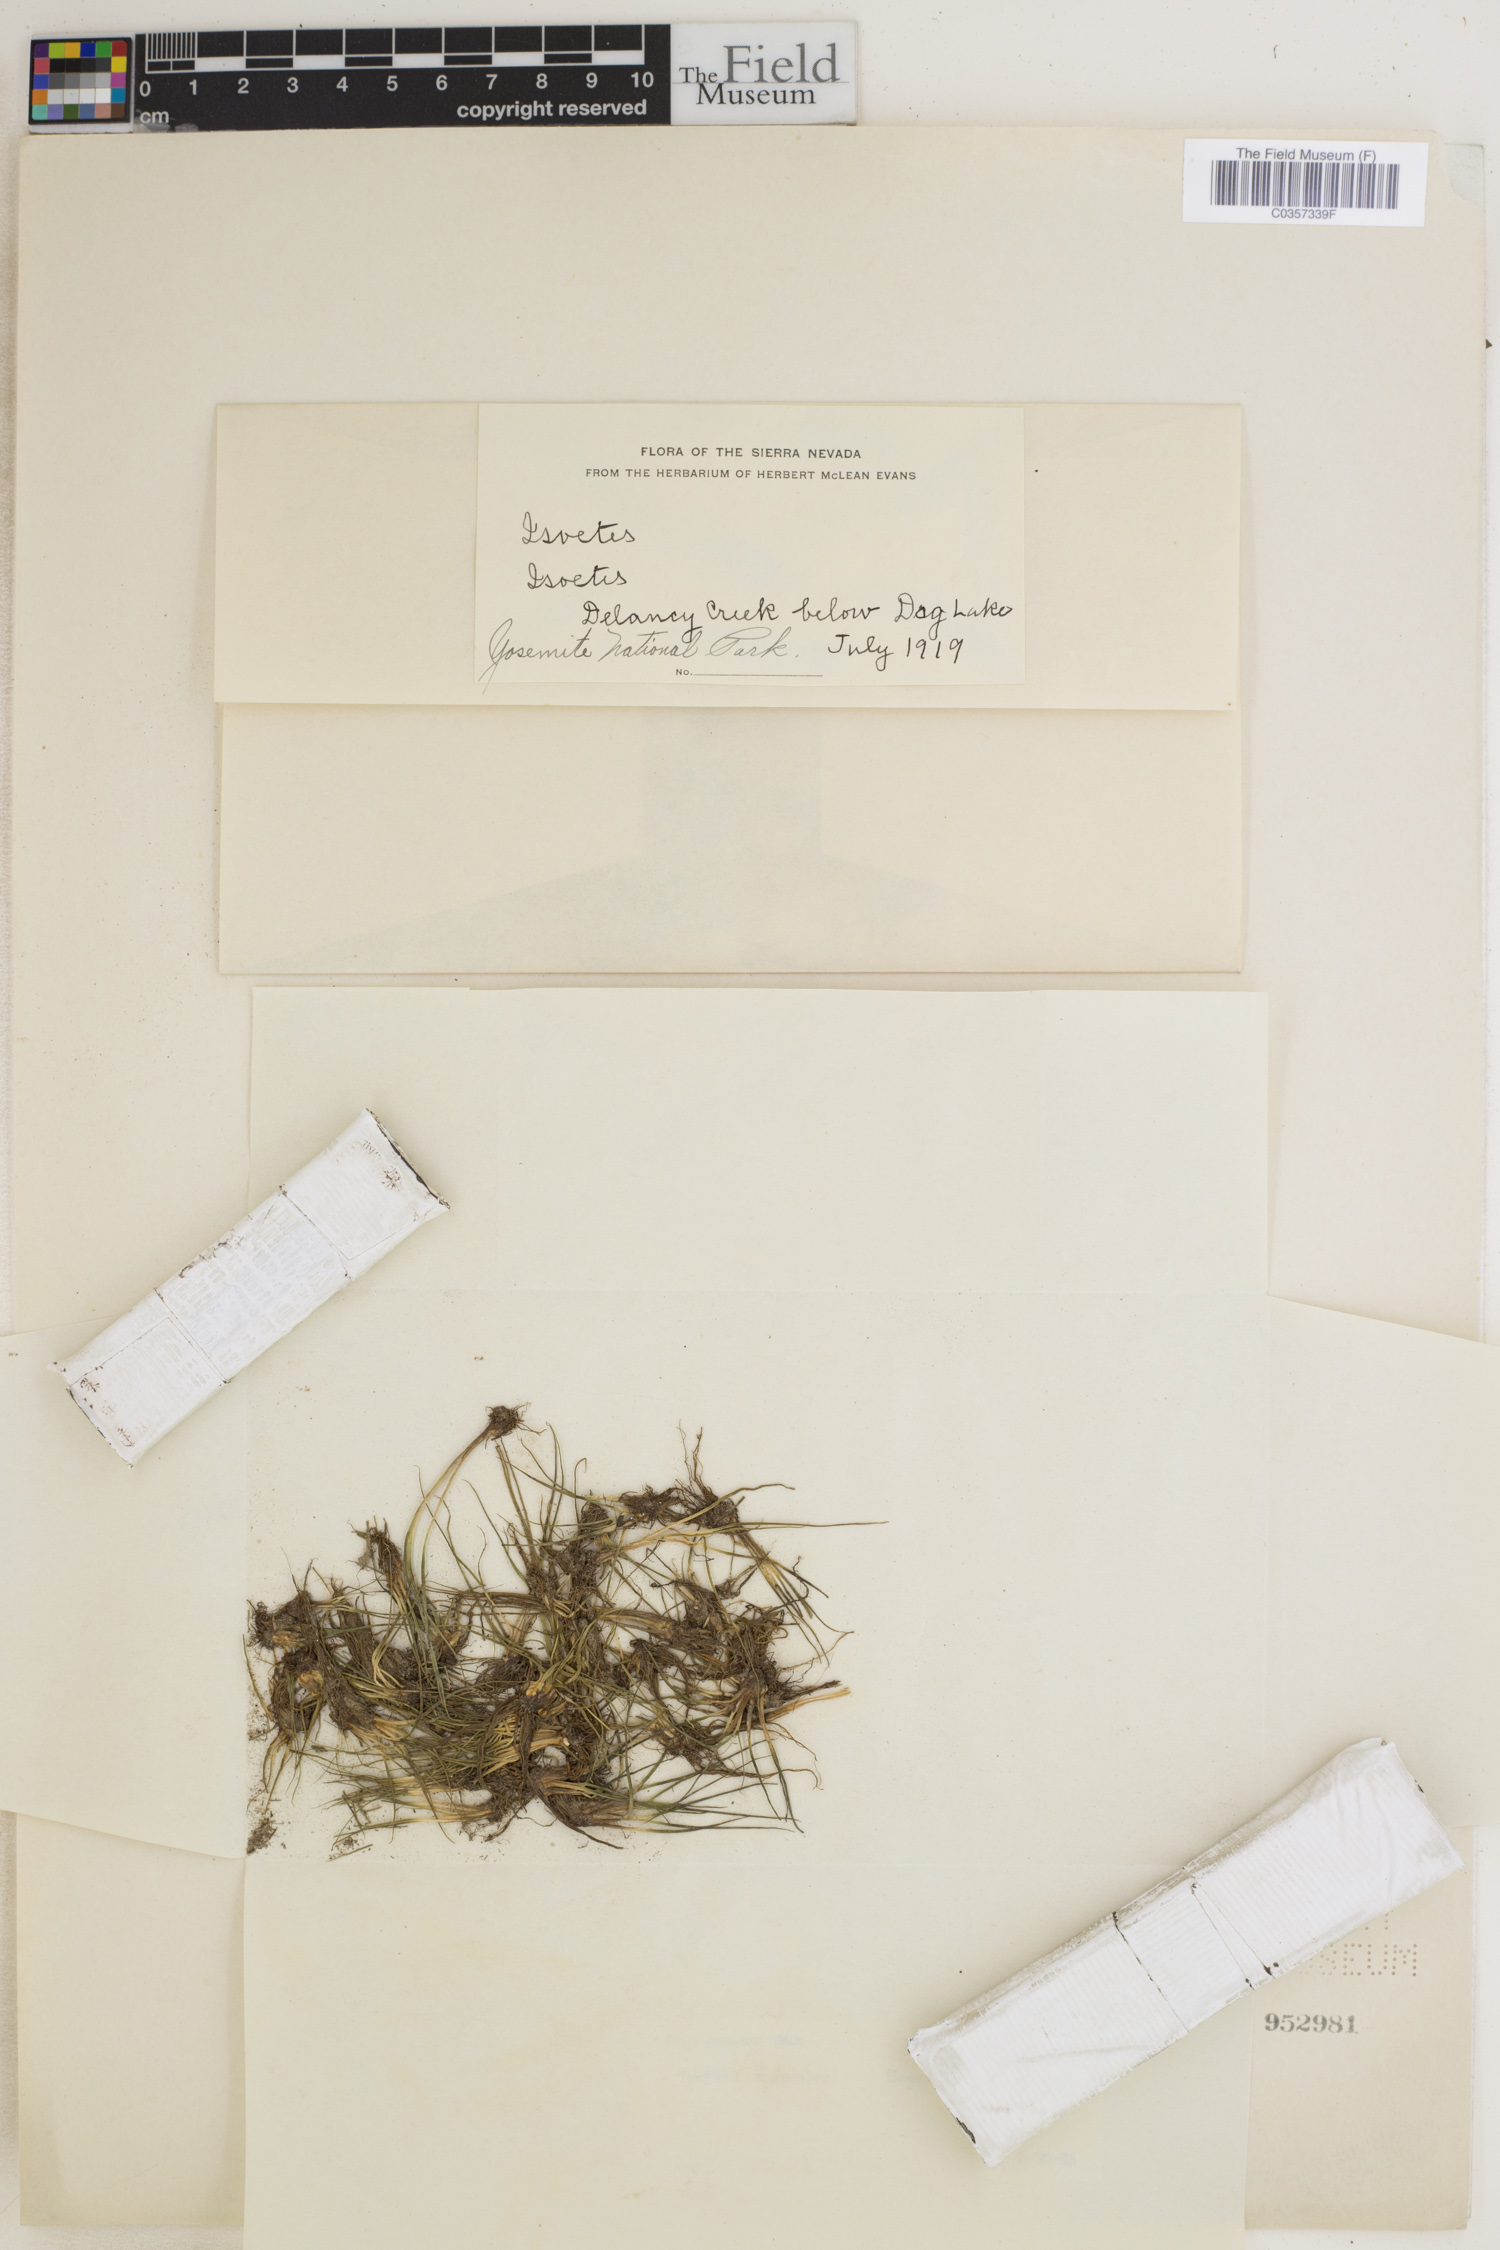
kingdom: Plantae
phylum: Tracheophyta
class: Lycopodiopsida
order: Isoetales
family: Isoetaceae
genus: Isoetes
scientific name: Isoetes bolanderi
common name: Bolander's quillwort
